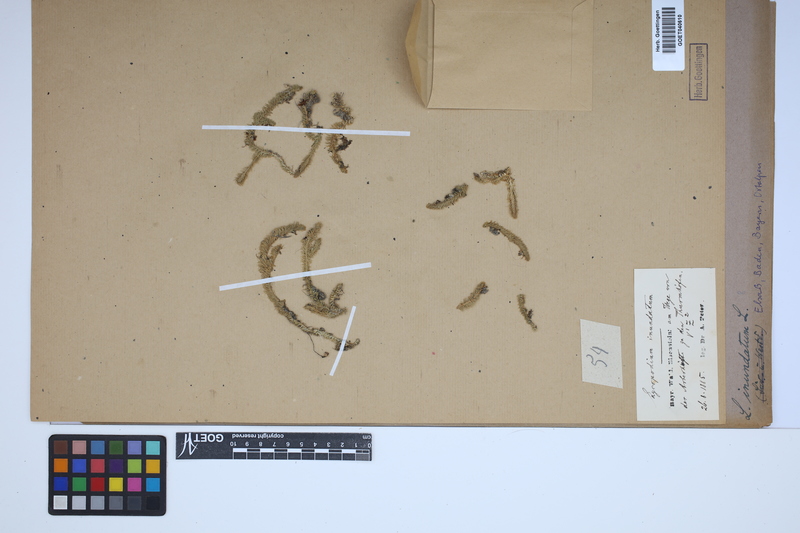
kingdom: Plantae
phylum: Tracheophyta
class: Lycopodiopsida
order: Lycopodiales
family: Lycopodiaceae
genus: Lycopodiella
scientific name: Lycopodiella inundata
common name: Marsh clubmoss
